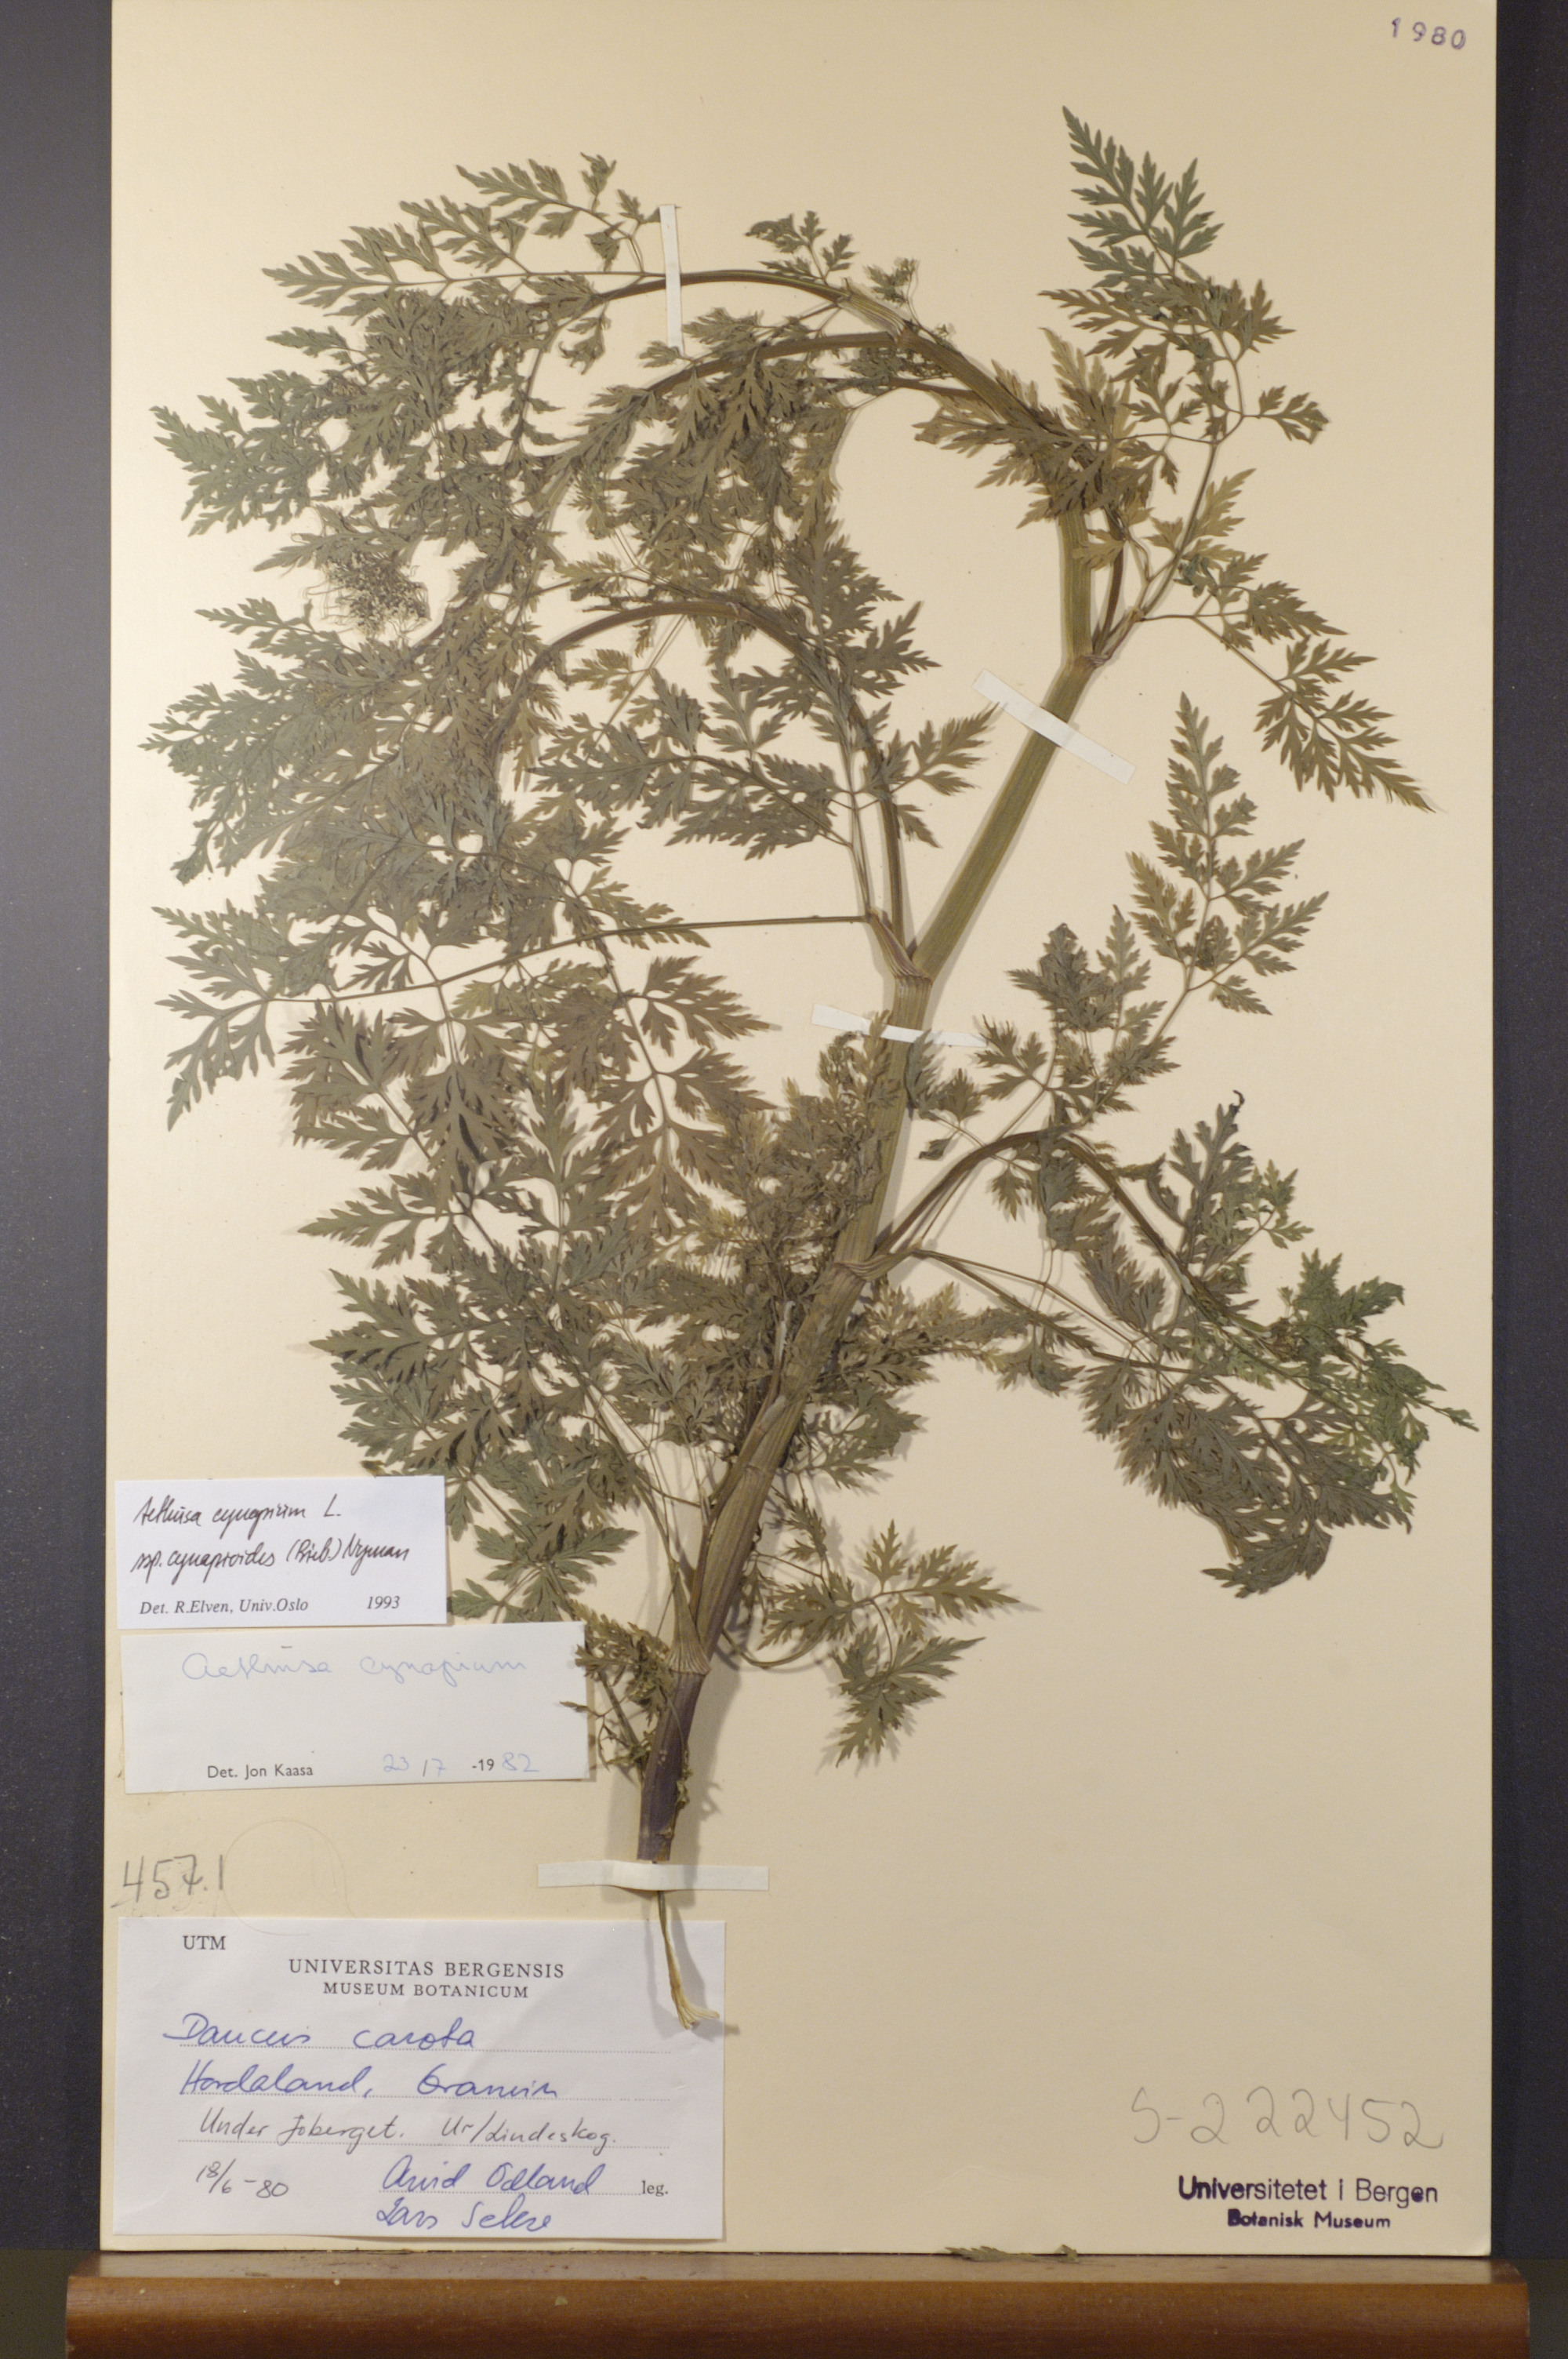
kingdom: Plantae
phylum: Tracheophyta
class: Magnoliopsida
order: Apiales
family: Apiaceae
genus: Aethusa
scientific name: Aethusa cynapium
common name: Fool's parsley
